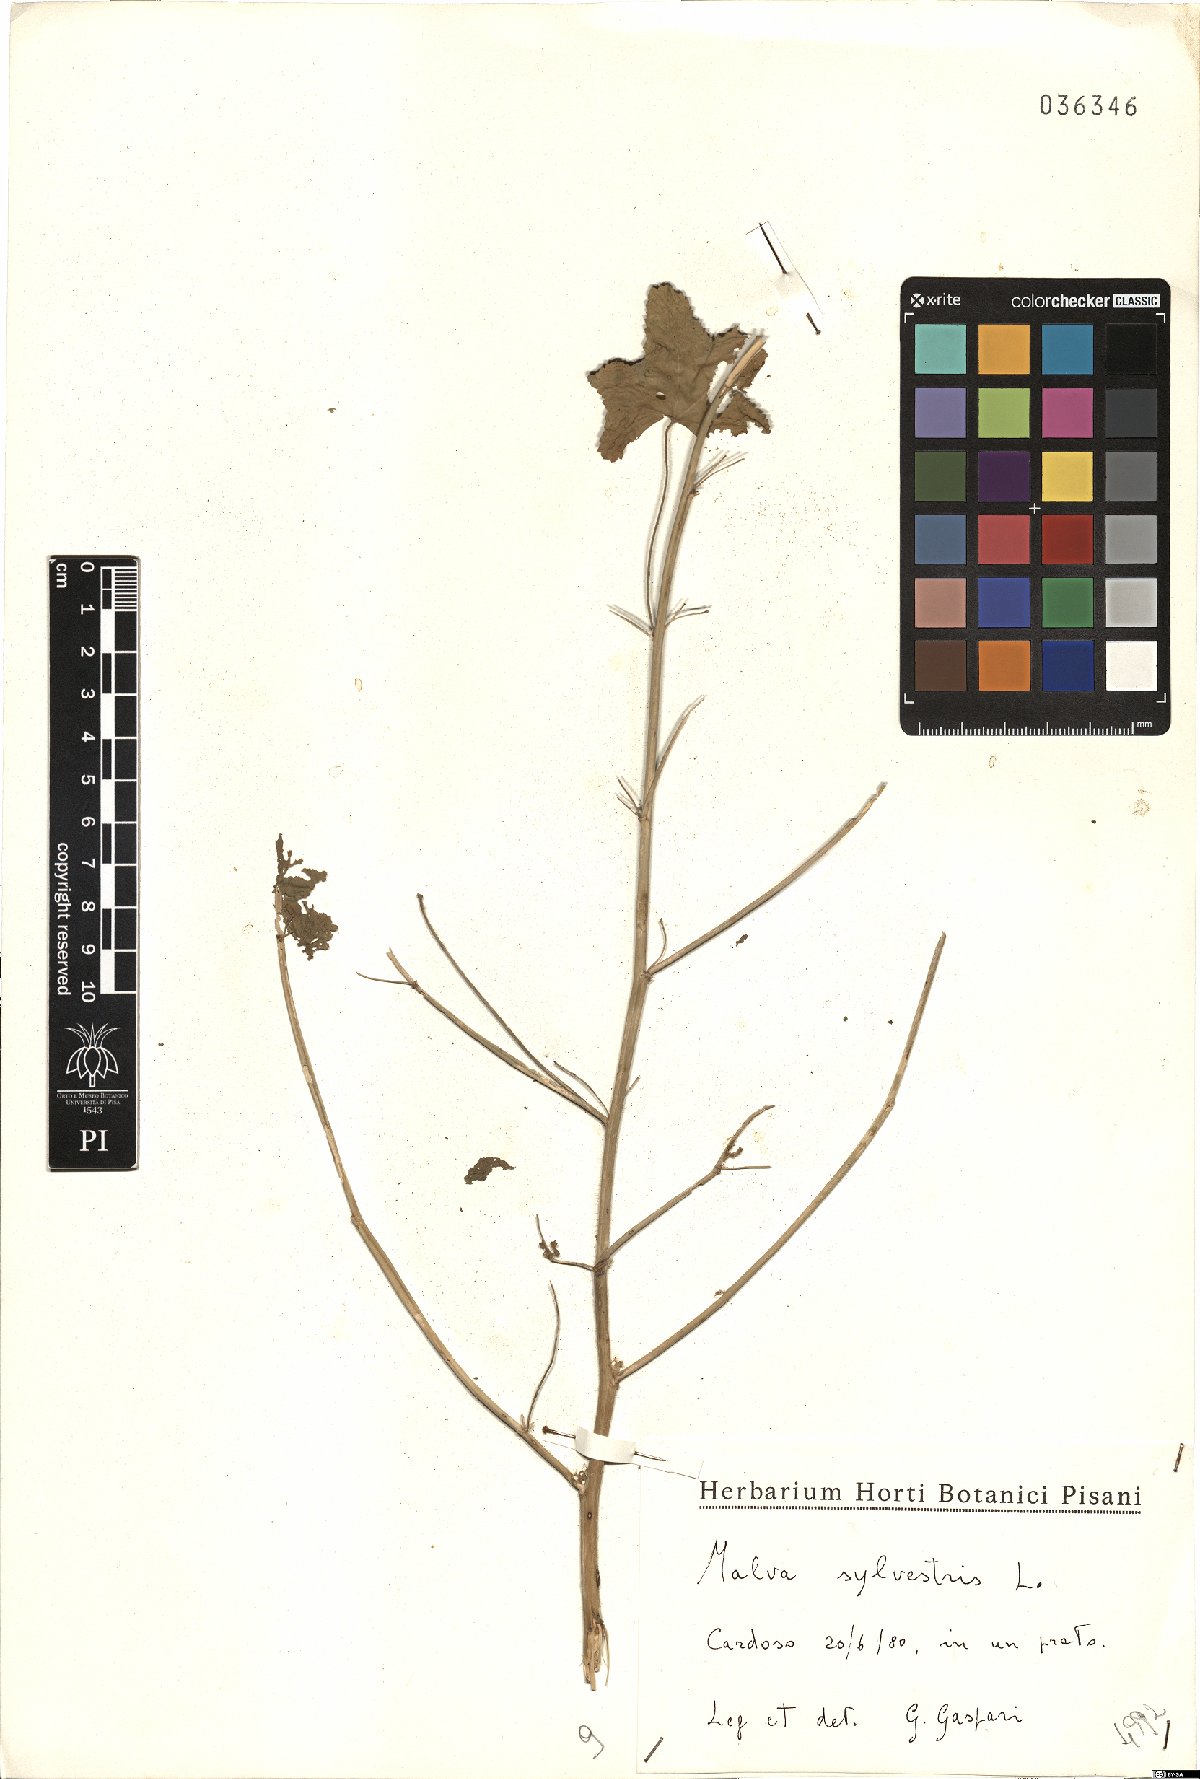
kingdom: Plantae
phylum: Tracheophyta
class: Magnoliopsida
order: Malvales
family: Malvaceae
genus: Malva
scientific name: Malva sylvestris
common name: Common mallow
